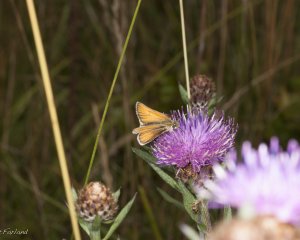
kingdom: Animalia
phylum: Arthropoda
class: Insecta
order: Lepidoptera
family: Hesperiidae
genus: Thymelicus
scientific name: Thymelicus lineola
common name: European Skipper
